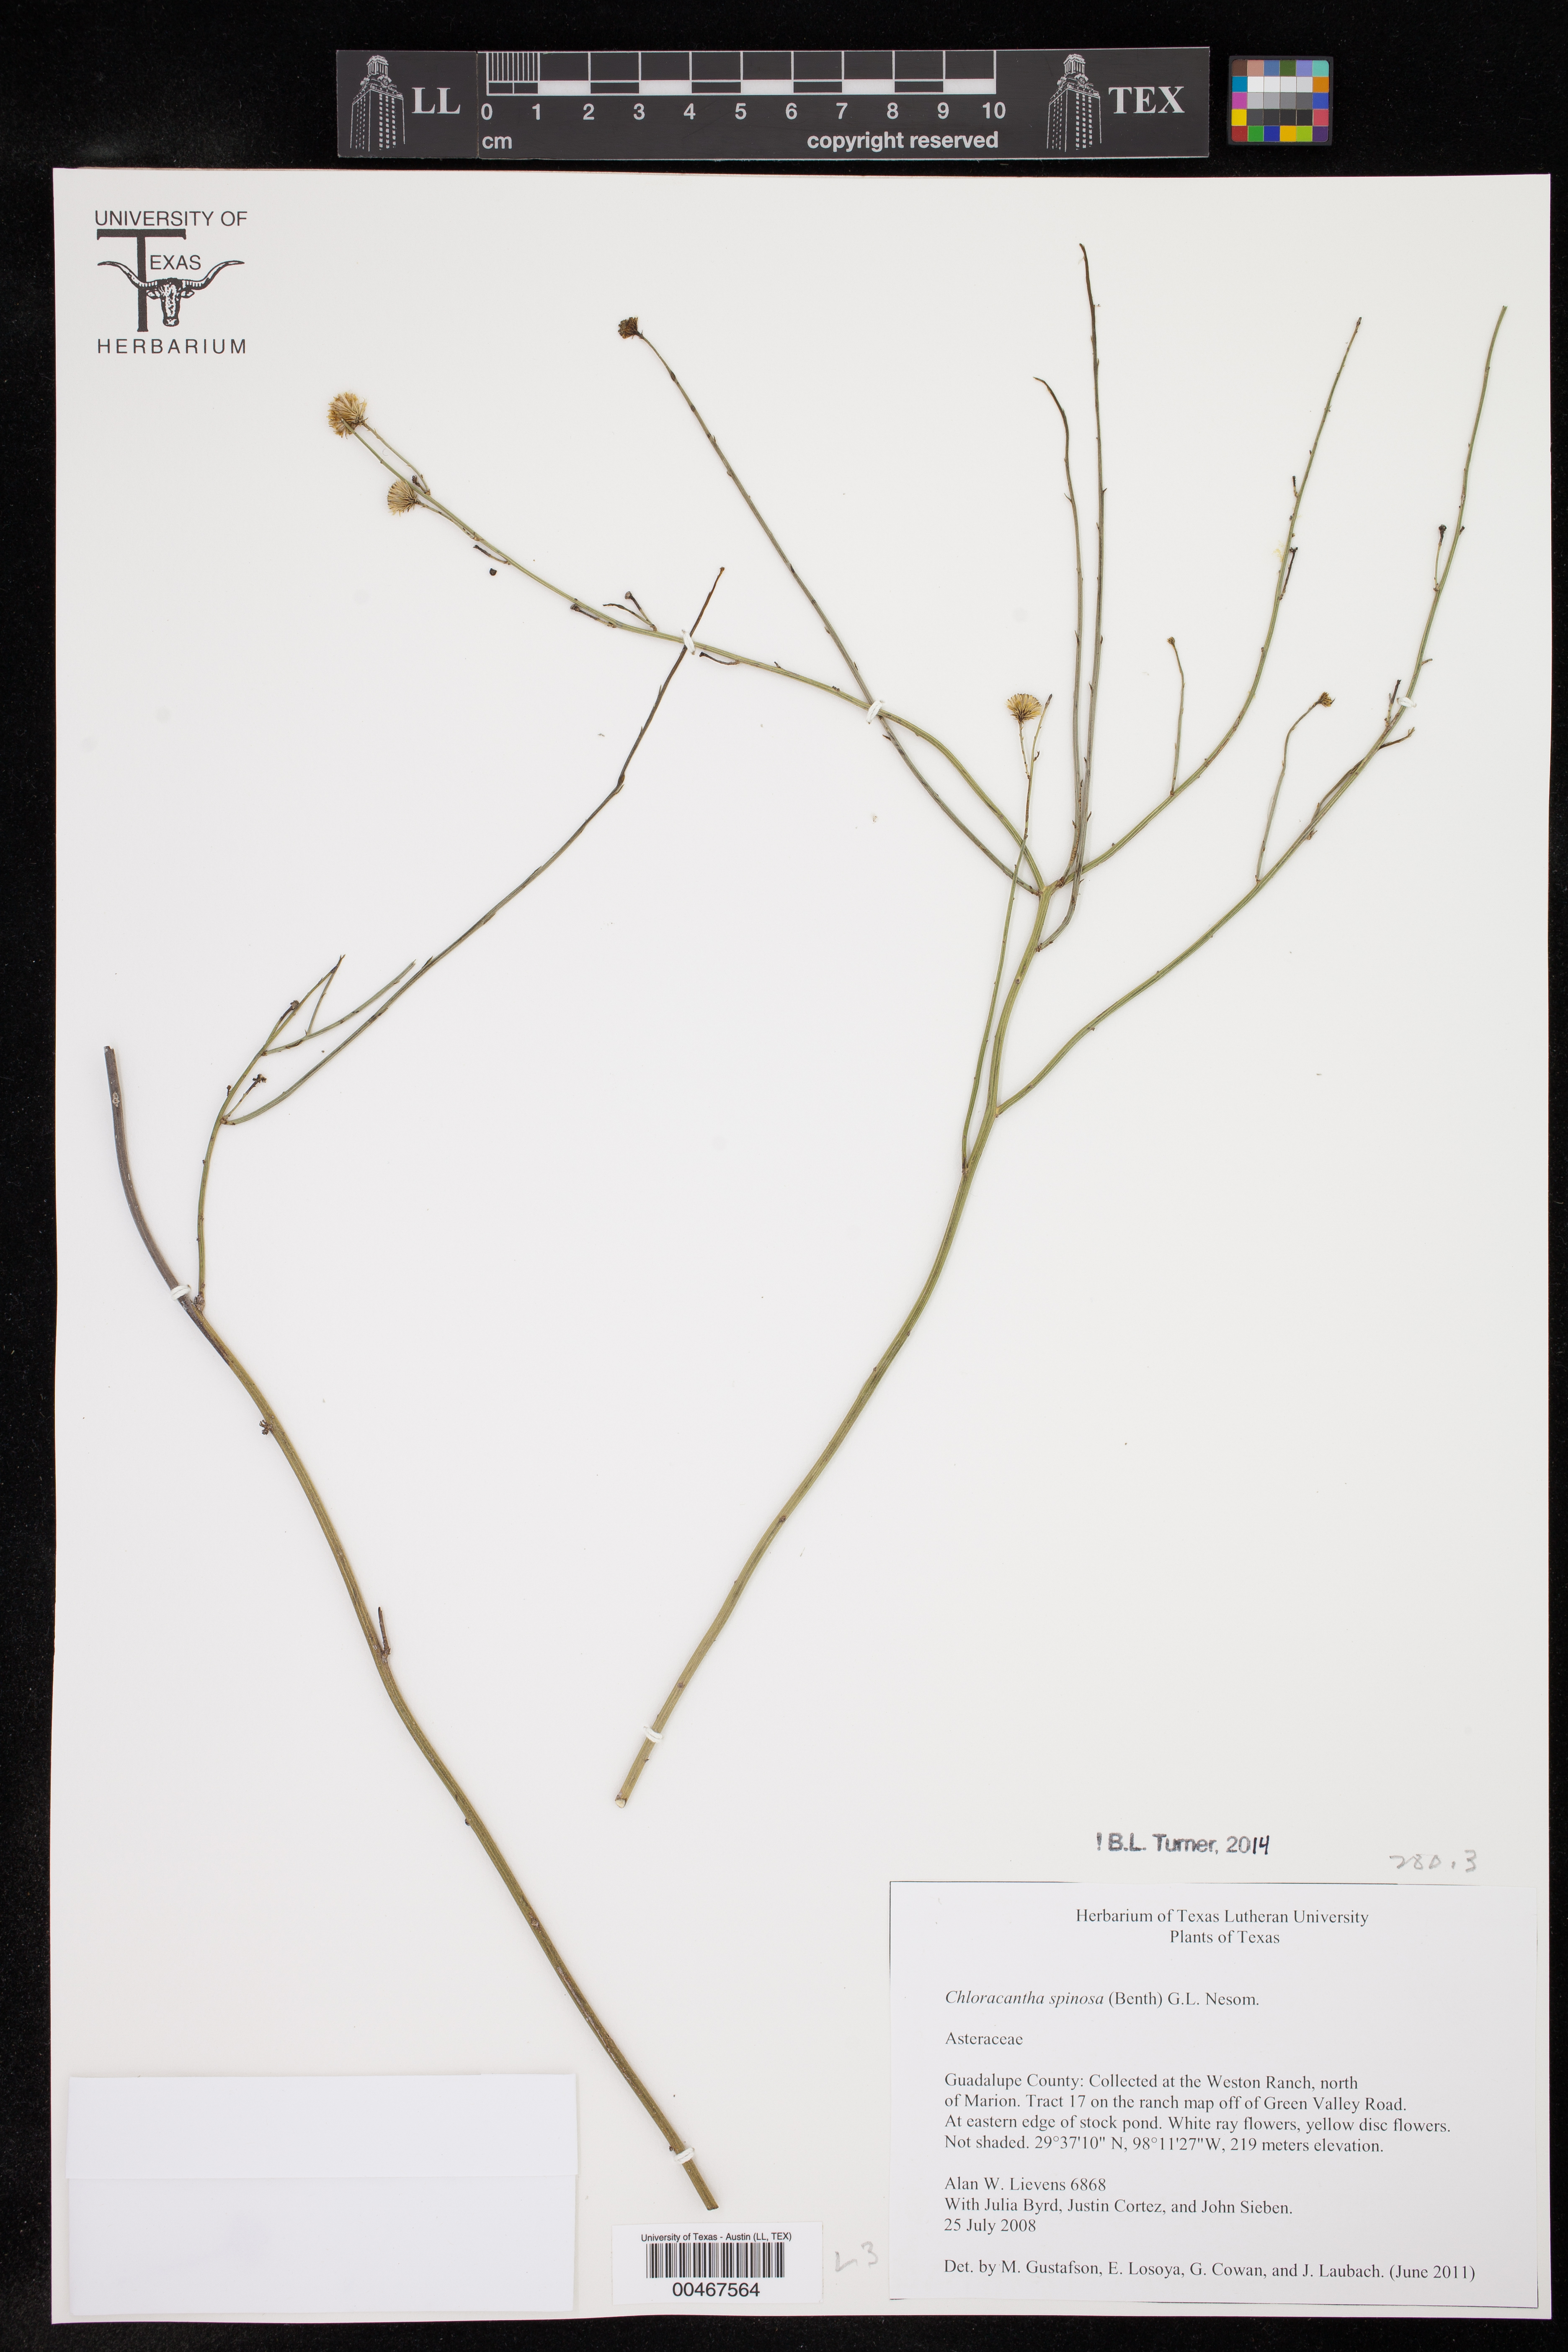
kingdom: Plantae
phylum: Tracheophyta
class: Magnoliopsida
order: Asterales
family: Asteraceae
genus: Chloracantha
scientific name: Chloracantha spinosa
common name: Mexican devilweed
